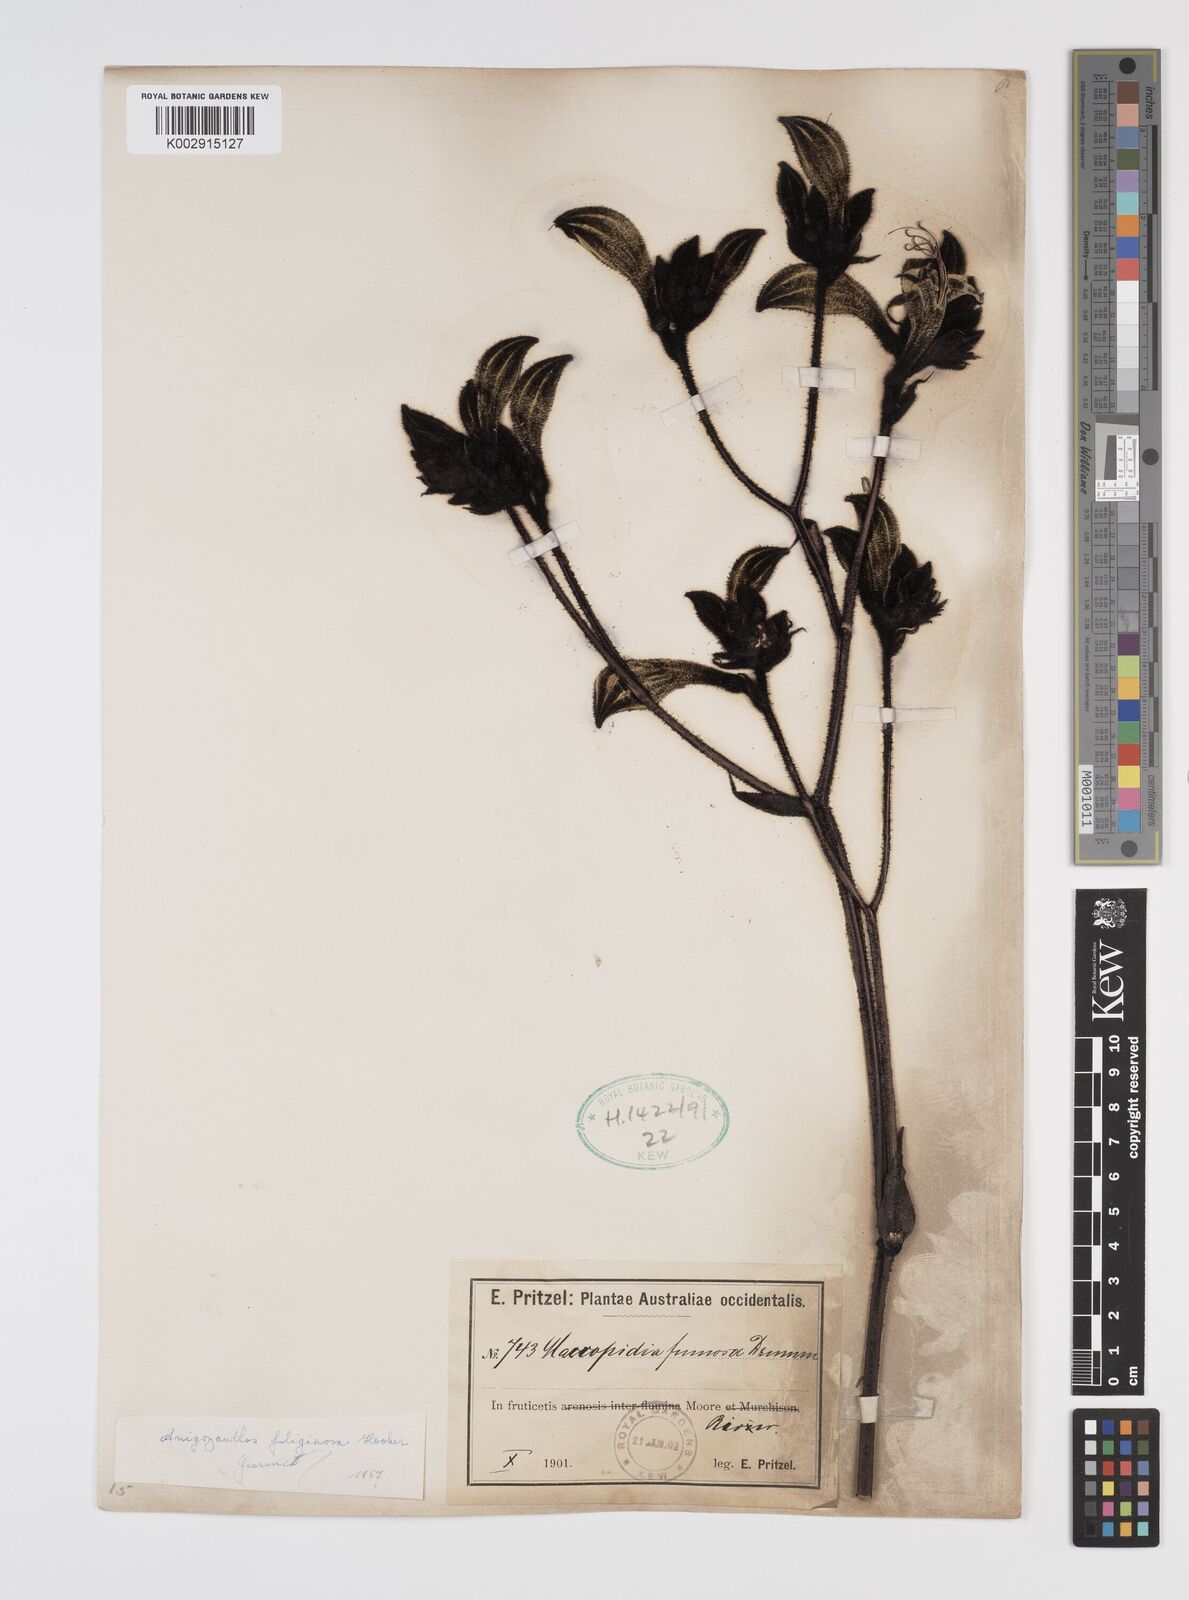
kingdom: Plantae
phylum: Tracheophyta
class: Liliopsida
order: Commelinales
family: Haemodoraceae
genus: Macropidia
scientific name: Macropidia fuliginosa
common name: Black kangaroo-paw
